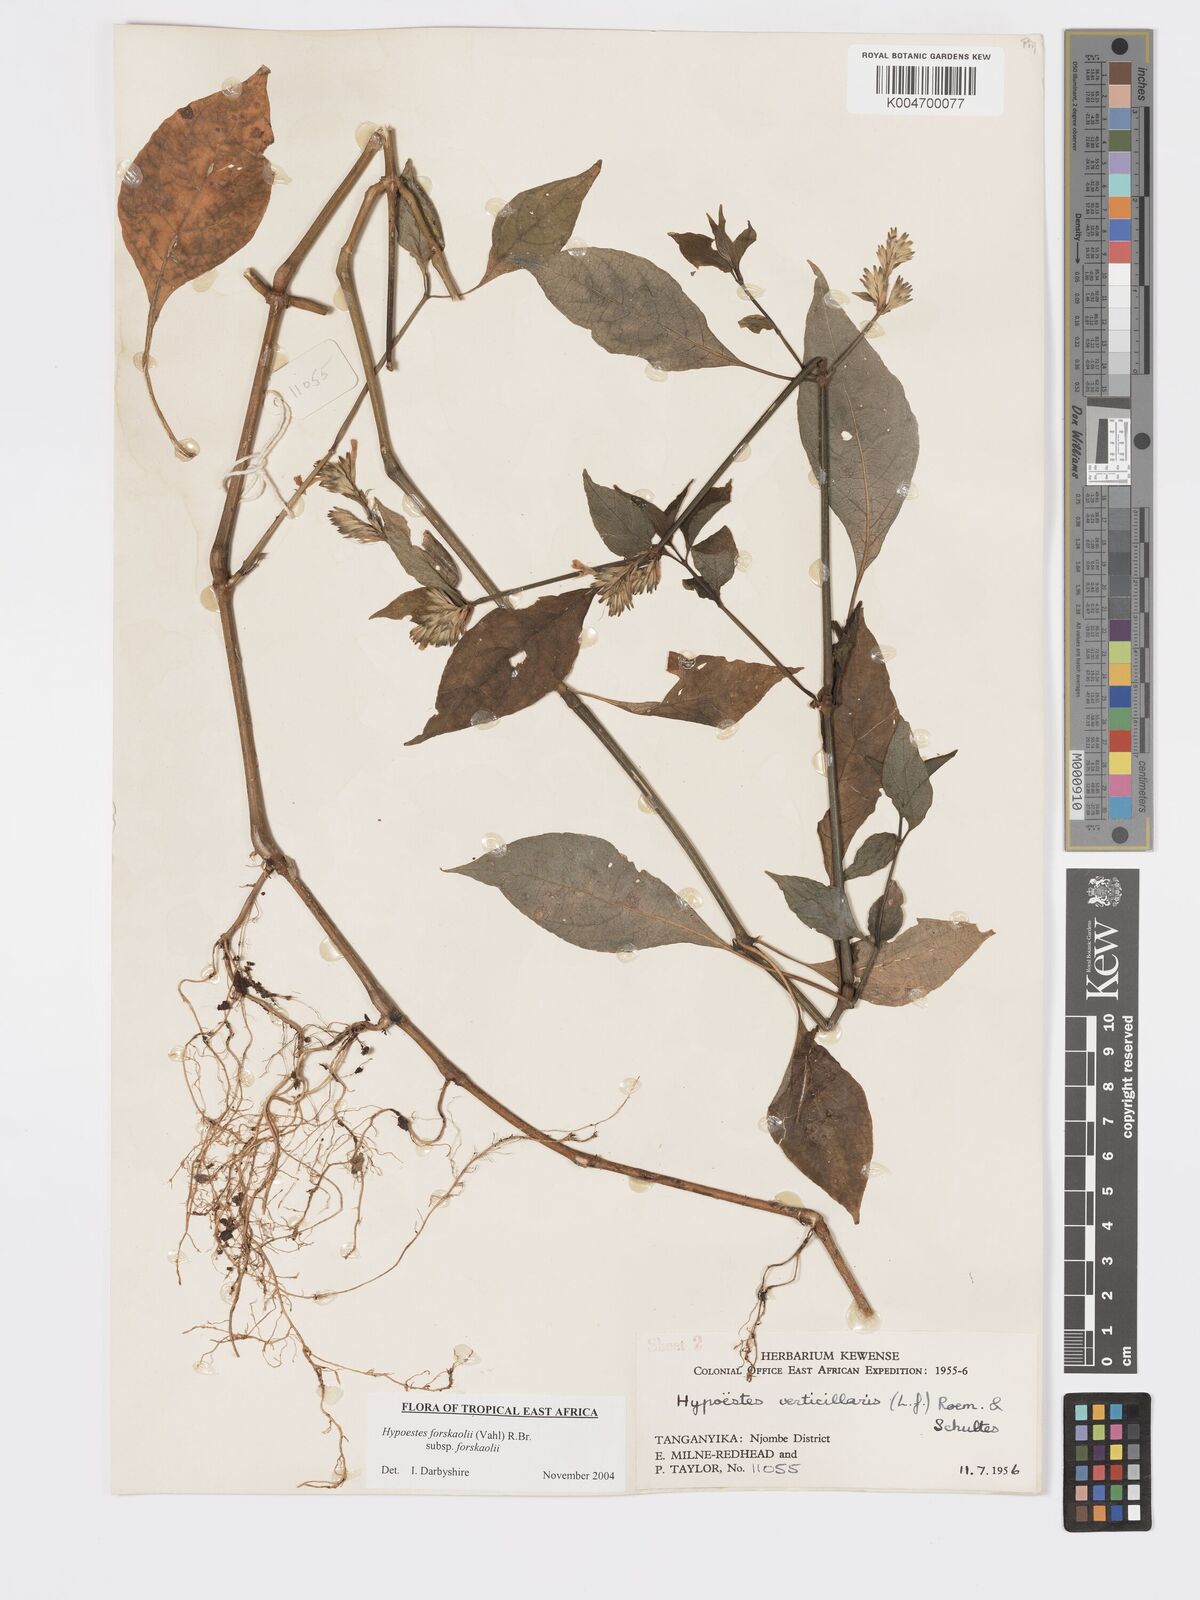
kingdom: Plantae
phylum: Tracheophyta
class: Magnoliopsida
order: Lamiales
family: Acanthaceae
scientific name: Acanthaceae
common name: Acanthaceae
